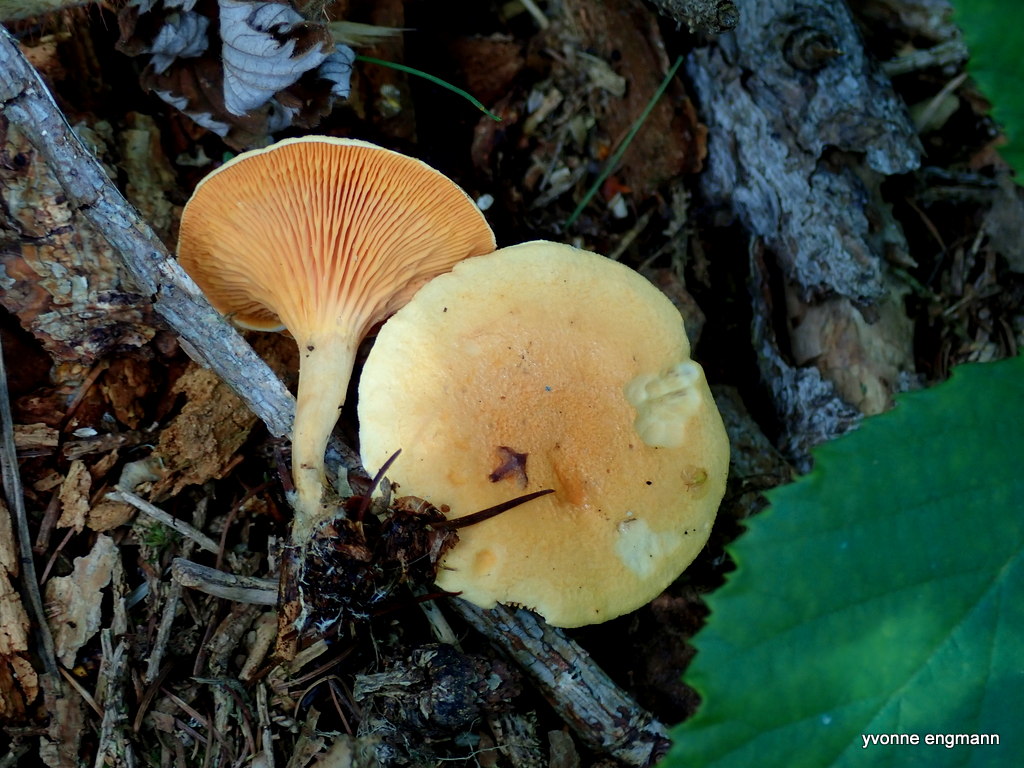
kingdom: Fungi
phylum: Basidiomycota
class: Agaricomycetes
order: Boletales
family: Hygrophoropsidaceae
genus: Hygrophoropsis
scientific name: Hygrophoropsis aurantiaca
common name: almindelig orangekantarel
